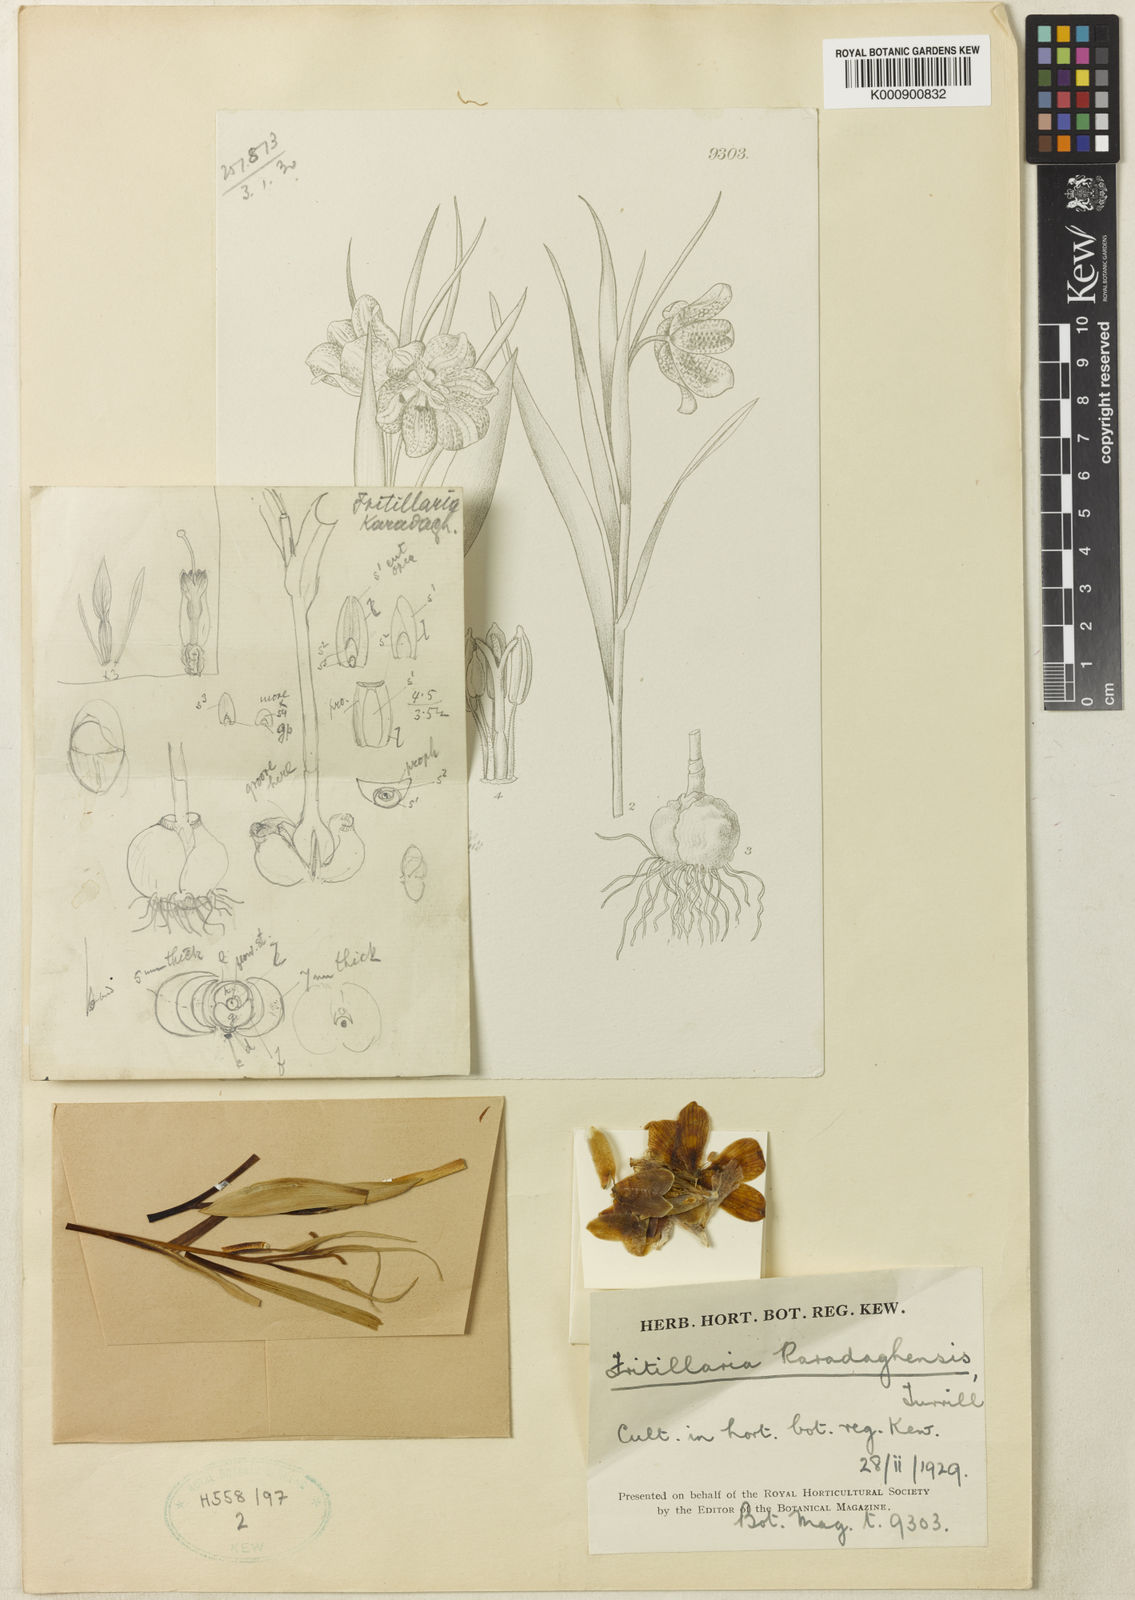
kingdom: Plantae
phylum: Tracheophyta
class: Liliopsida
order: Liliales
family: Liliaceae
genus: Fritillaria
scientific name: Fritillaria crassifolia
